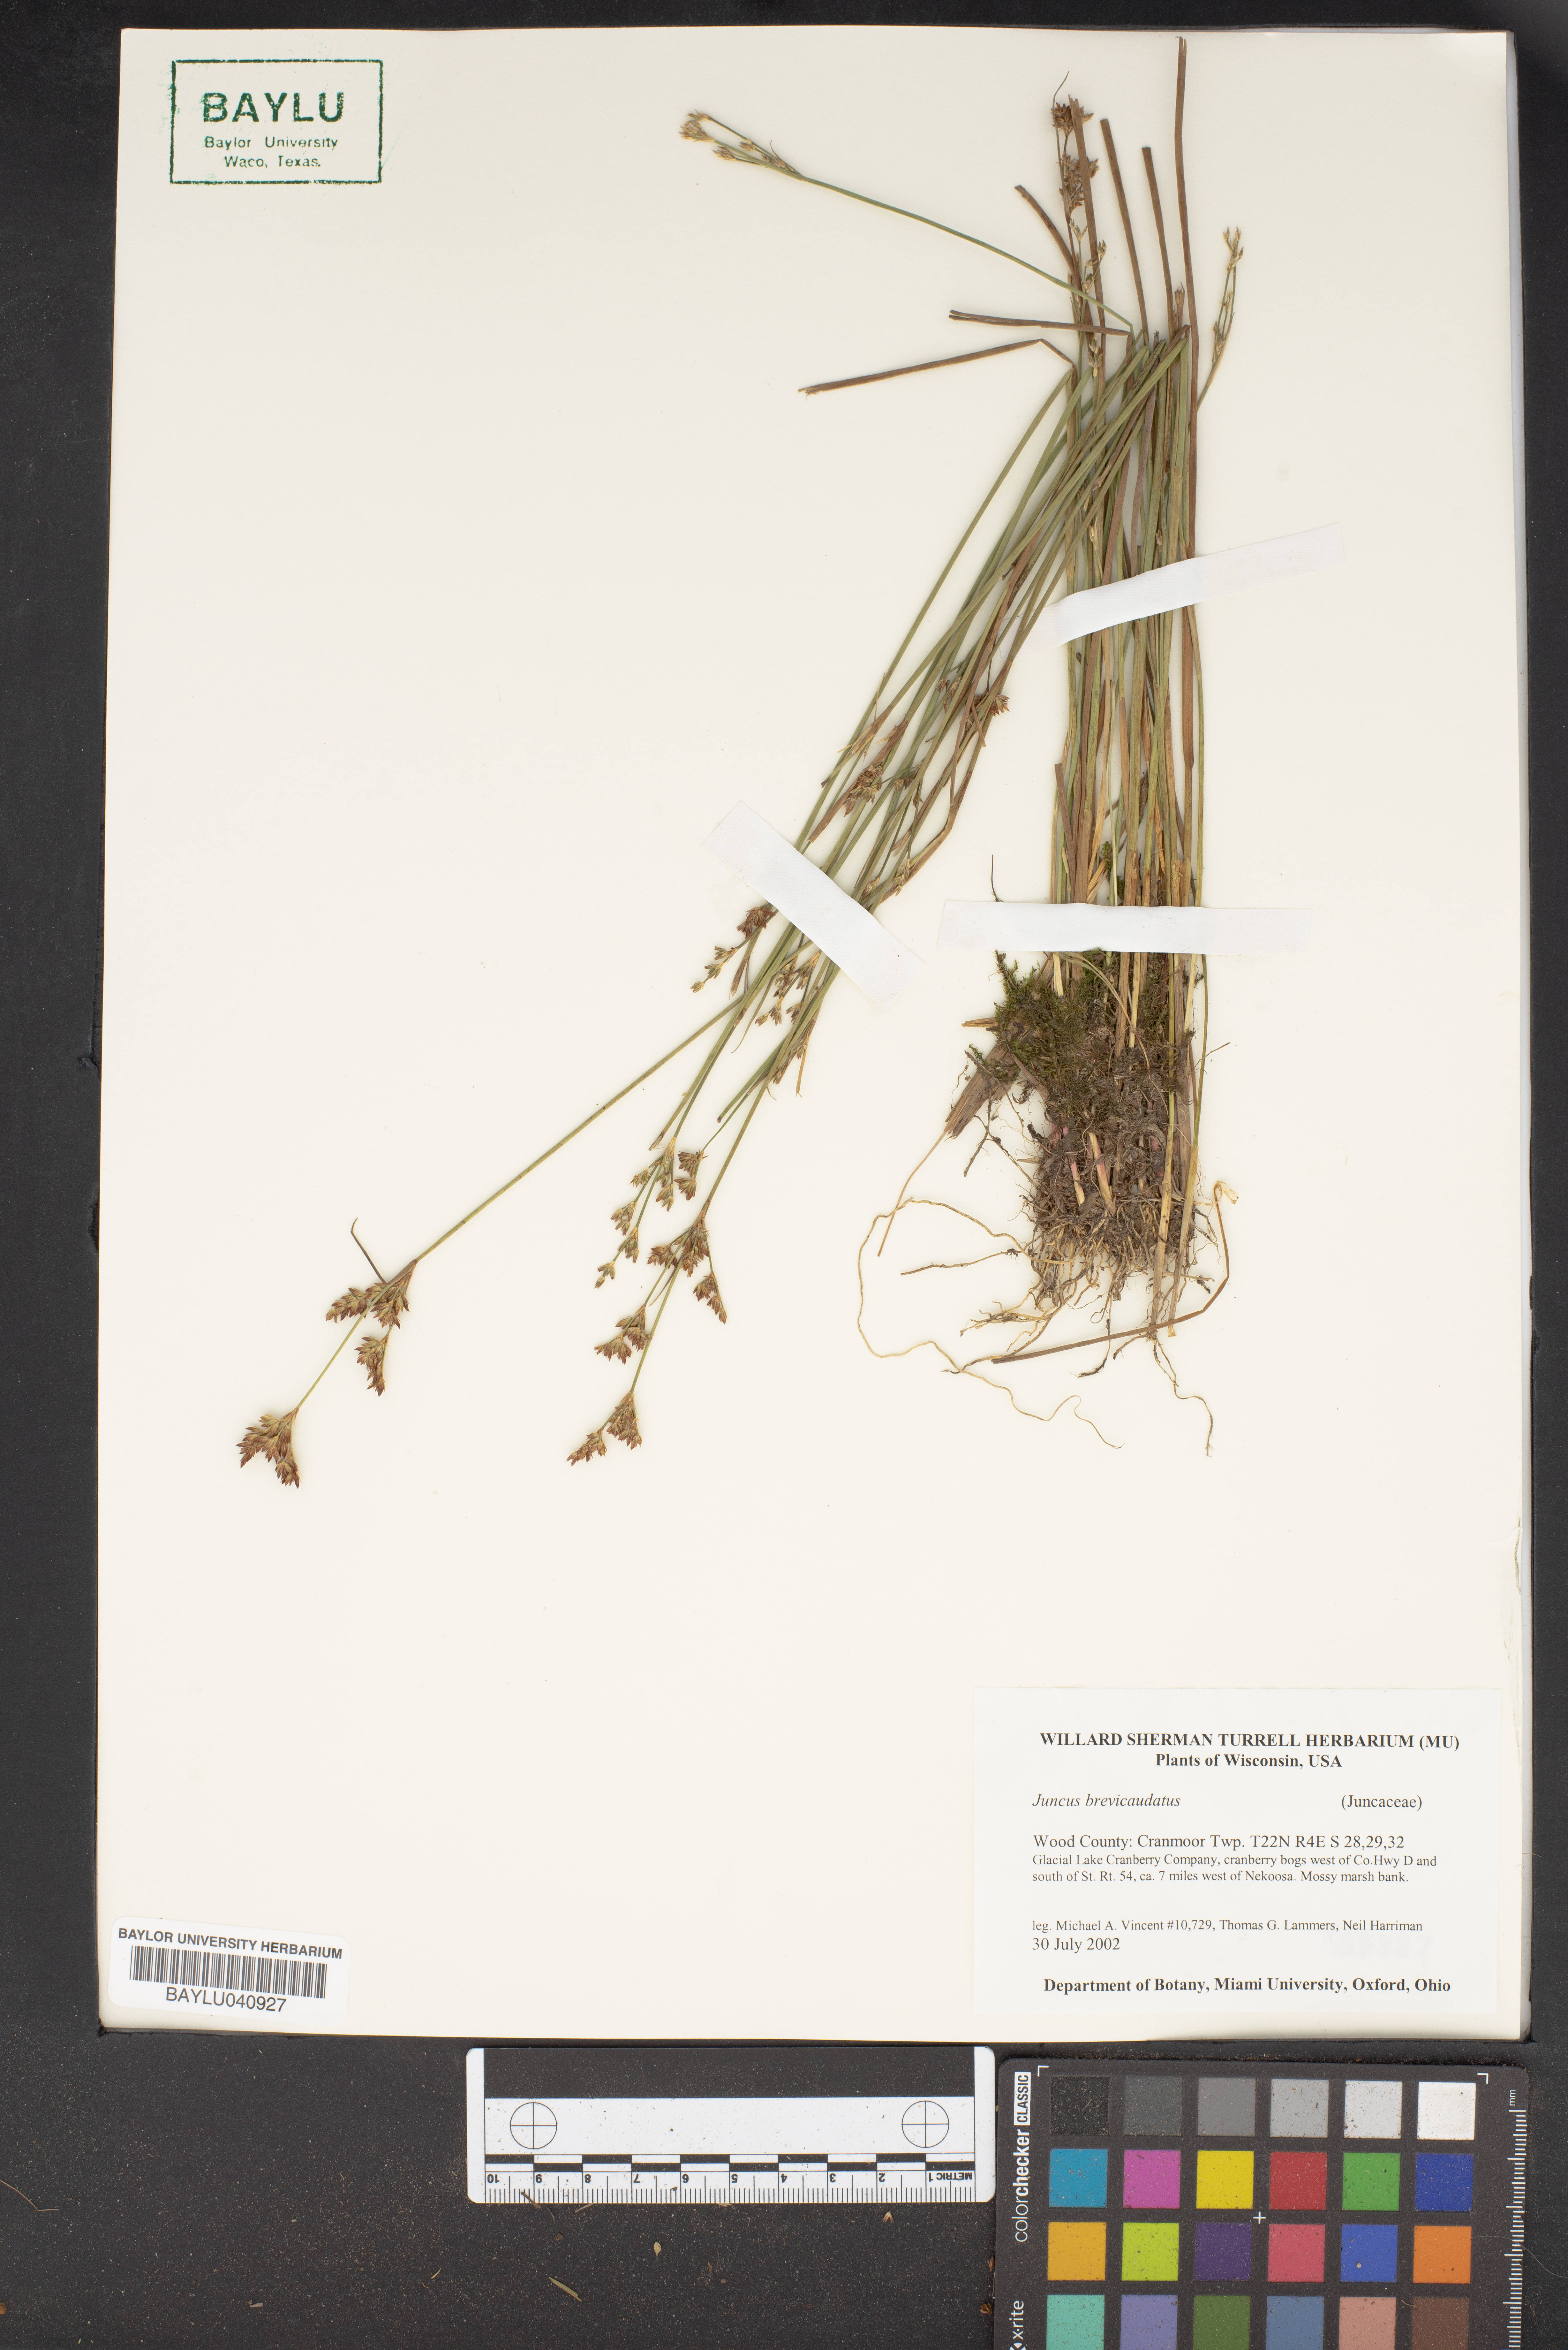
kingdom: Plantae
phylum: Tracheophyta
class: Liliopsida
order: Poales
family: Juncaceae
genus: Juncus
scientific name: Juncus brevicaudatus
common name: Narrow-panicle rush
